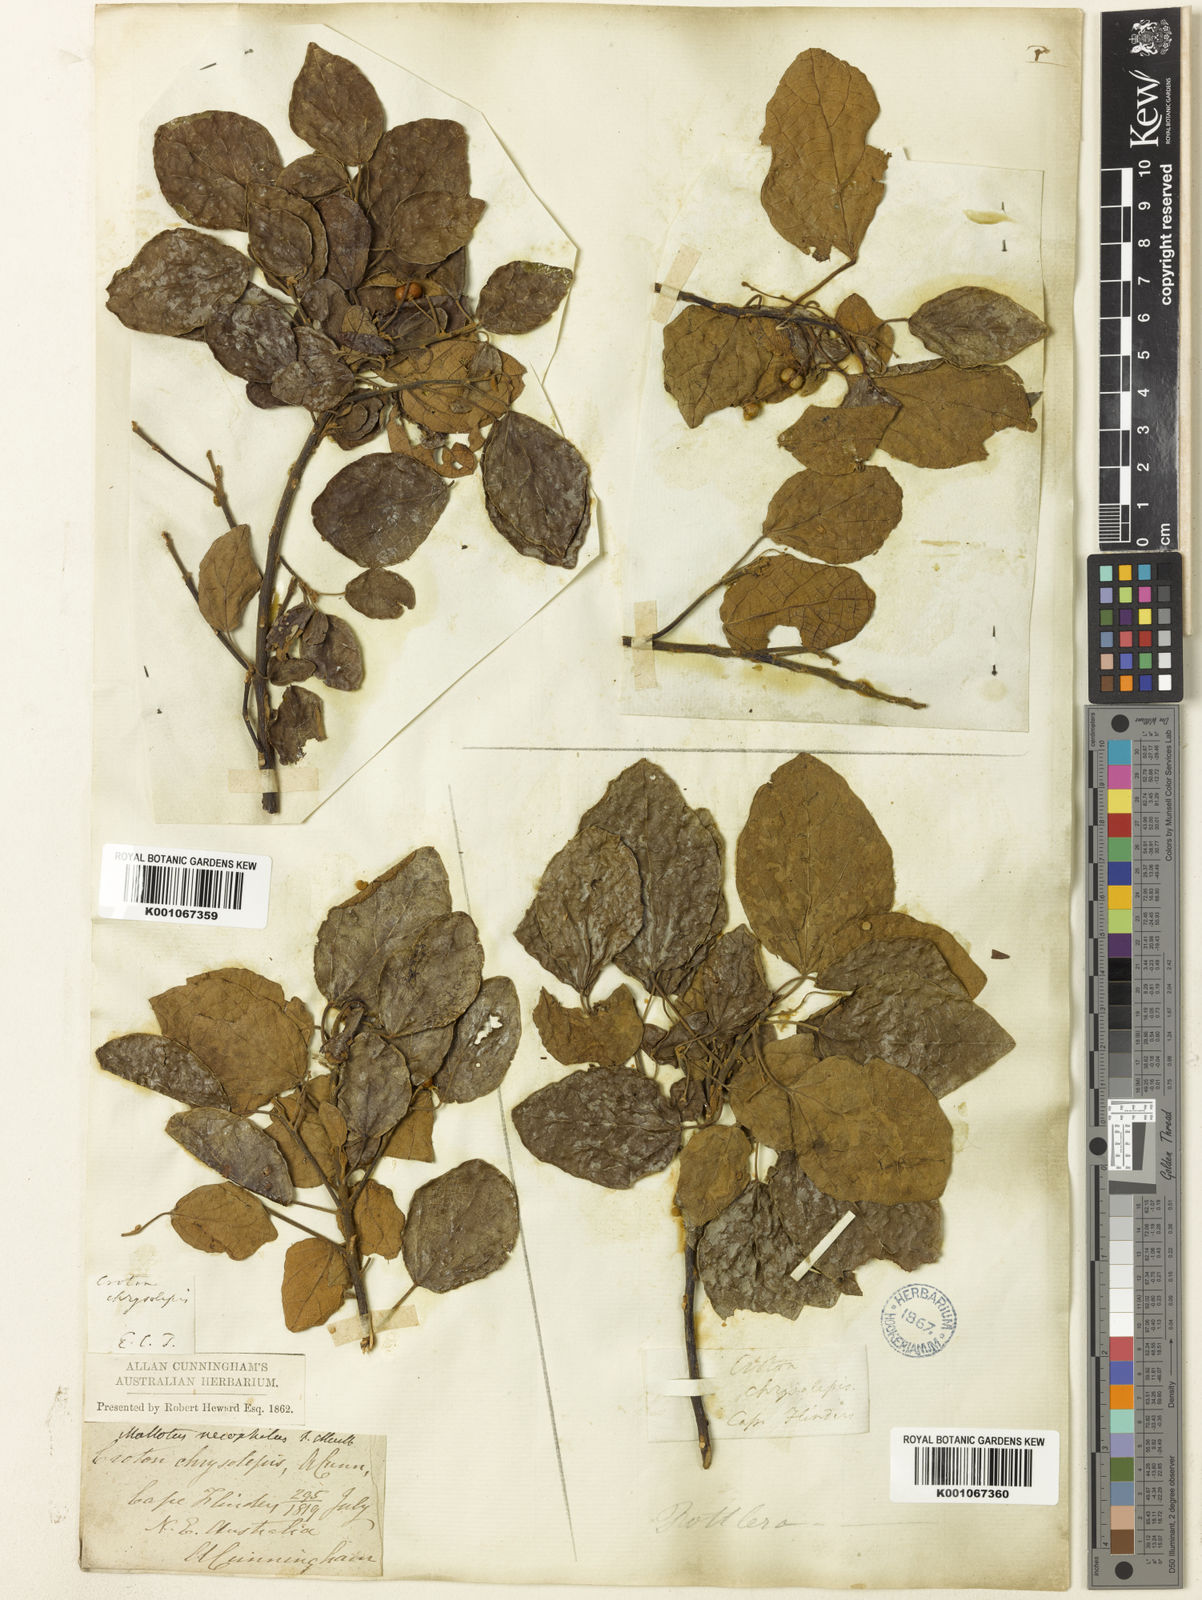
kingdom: Plantae
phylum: Tracheophyta
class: Magnoliopsida
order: Malpighiales
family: Euphorbiaceae
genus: Mallotus
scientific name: Mallotus nesophilus
